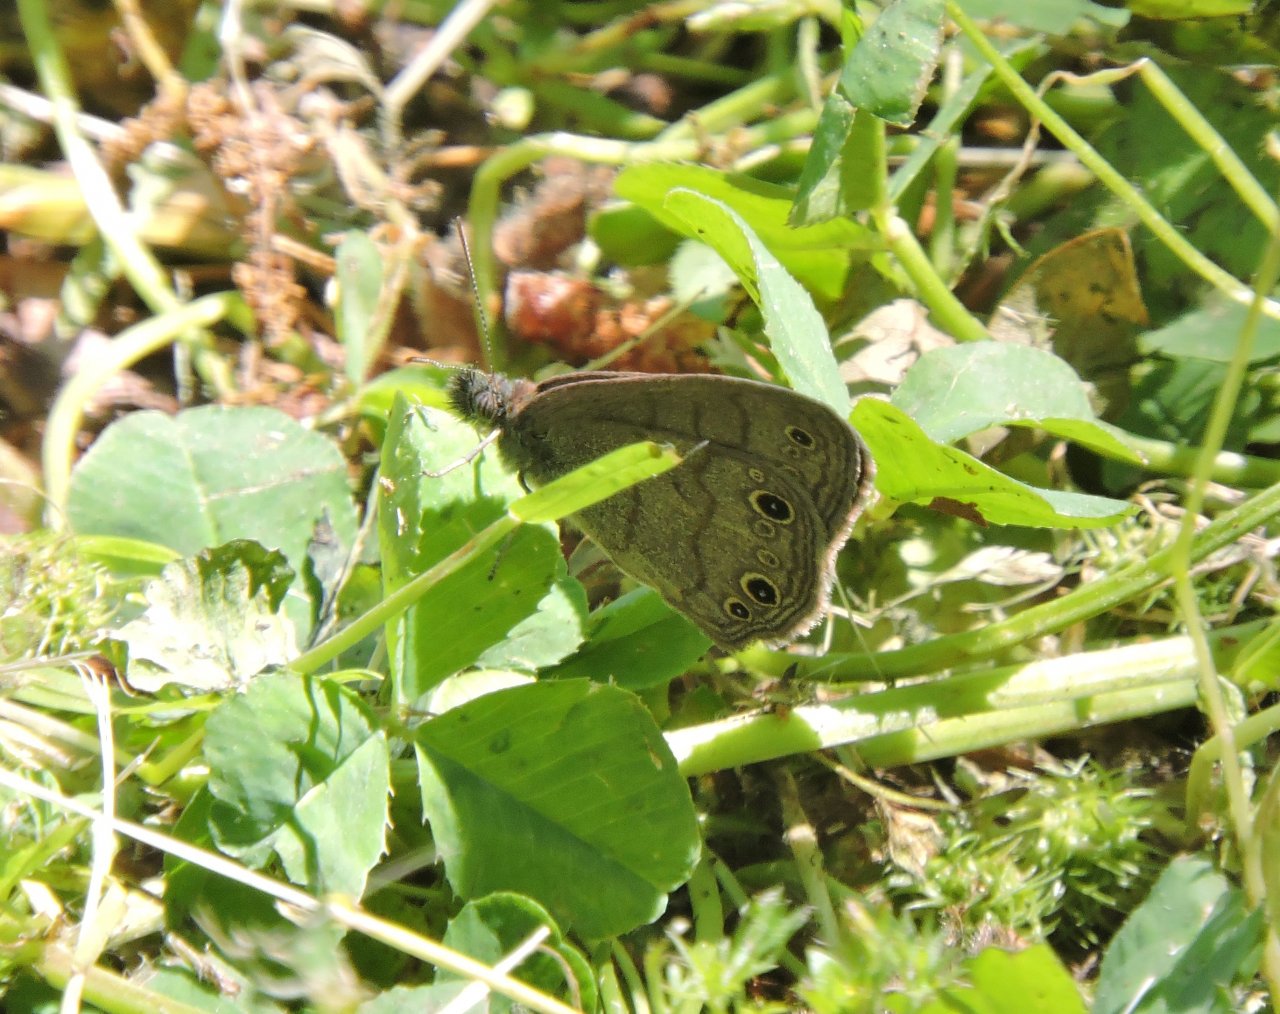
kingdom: Animalia
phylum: Arthropoda
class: Insecta
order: Lepidoptera
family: Nymphalidae
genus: Hermeuptychia
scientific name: Hermeuptychia hermes
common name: Carolina Satyr
